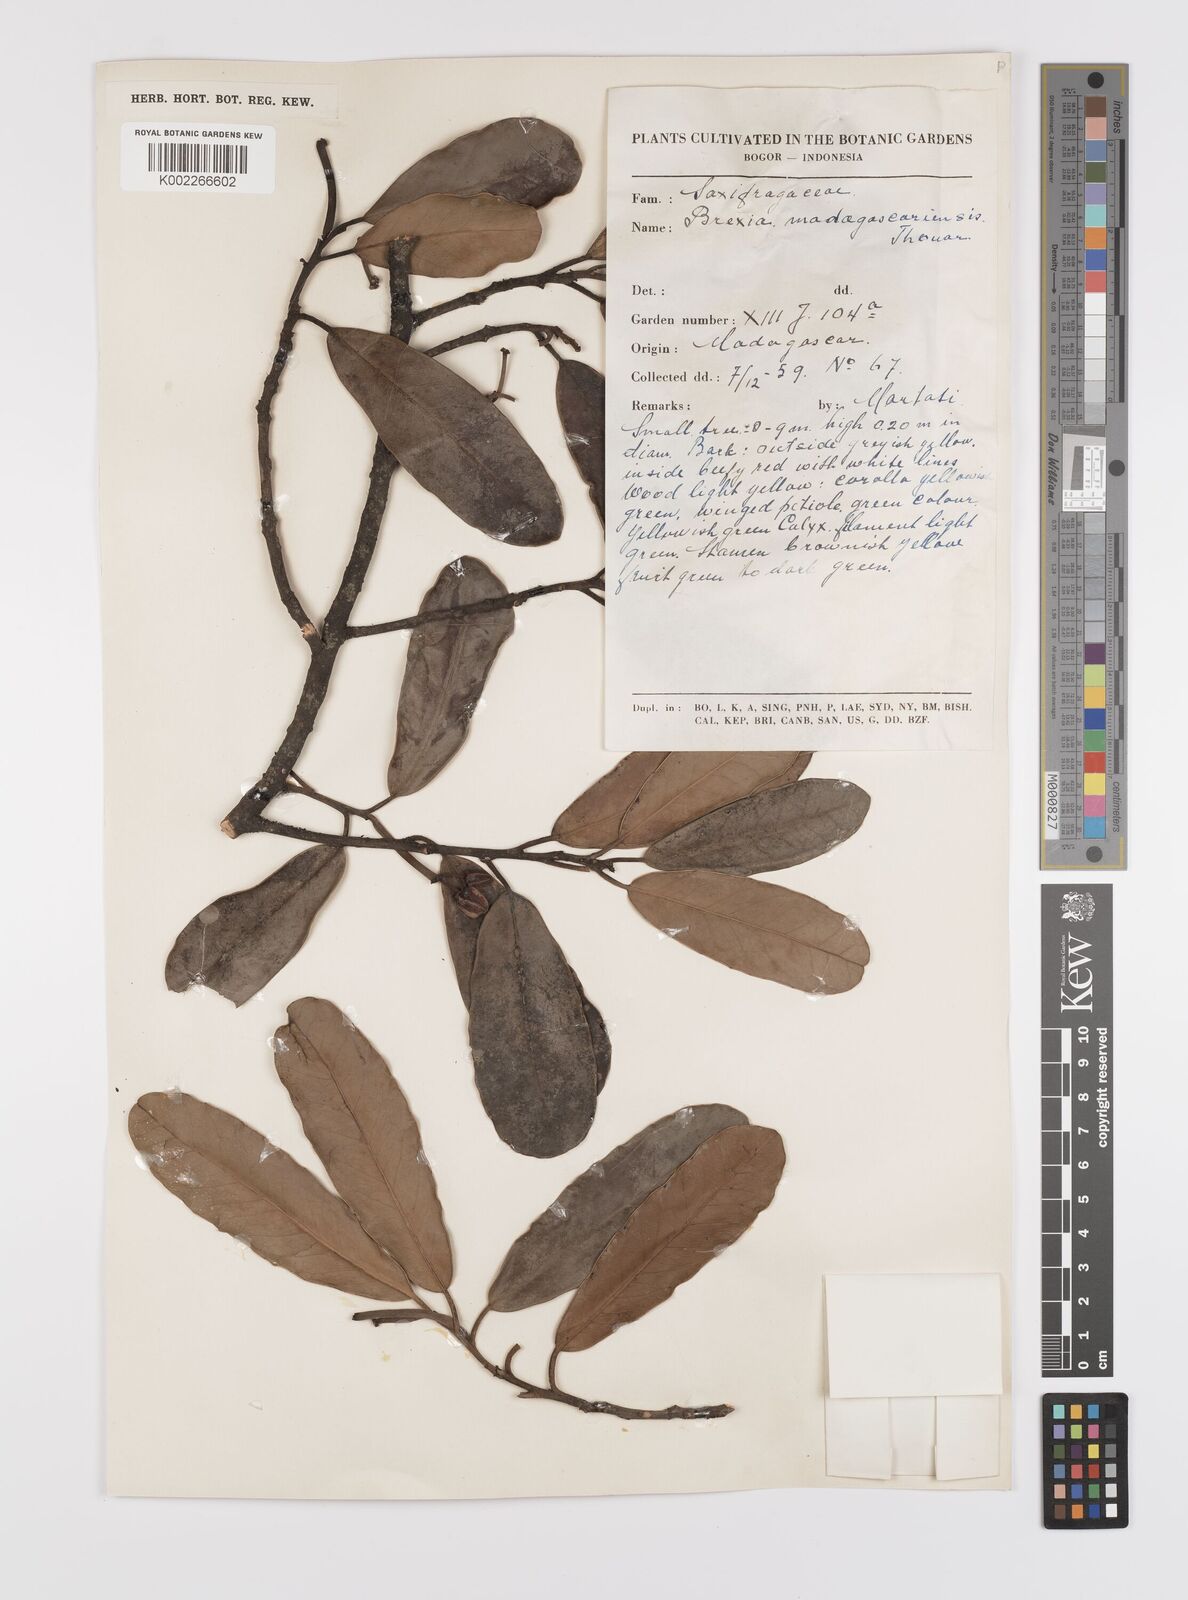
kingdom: Plantae
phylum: Tracheophyta
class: Magnoliopsida
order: Celastrales
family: Celastraceae
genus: Brexia
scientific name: Brexia madagascariensis
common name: Brexia
